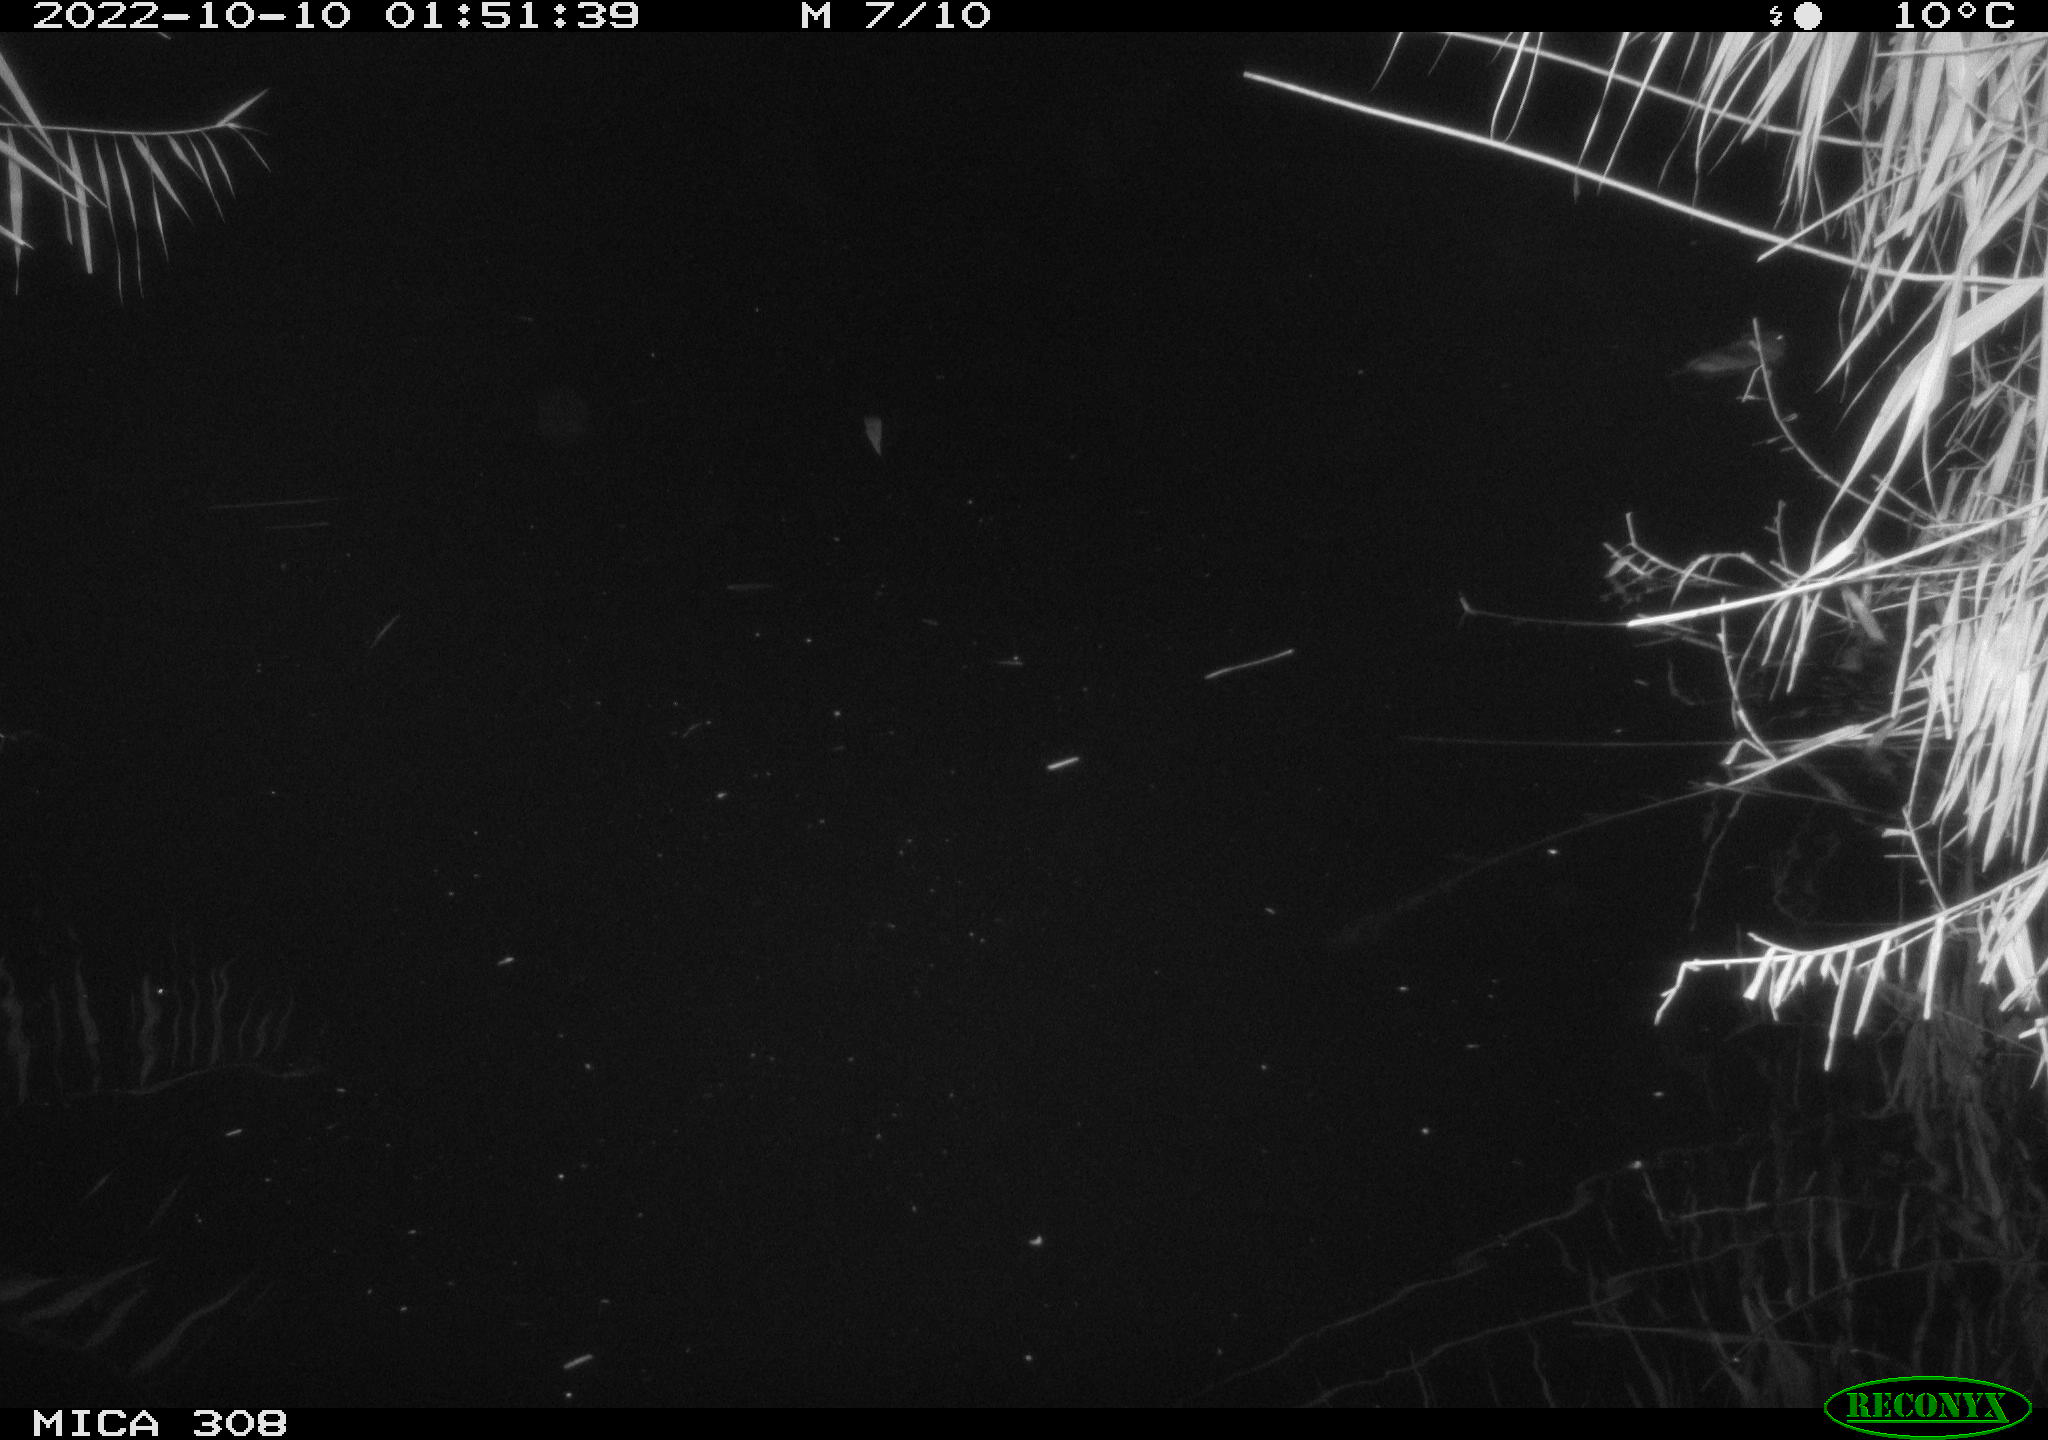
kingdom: Animalia
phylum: Chordata
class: Mammalia
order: Rodentia
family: Muridae
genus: Rattus
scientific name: Rattus norvegicus
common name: Brown rat
